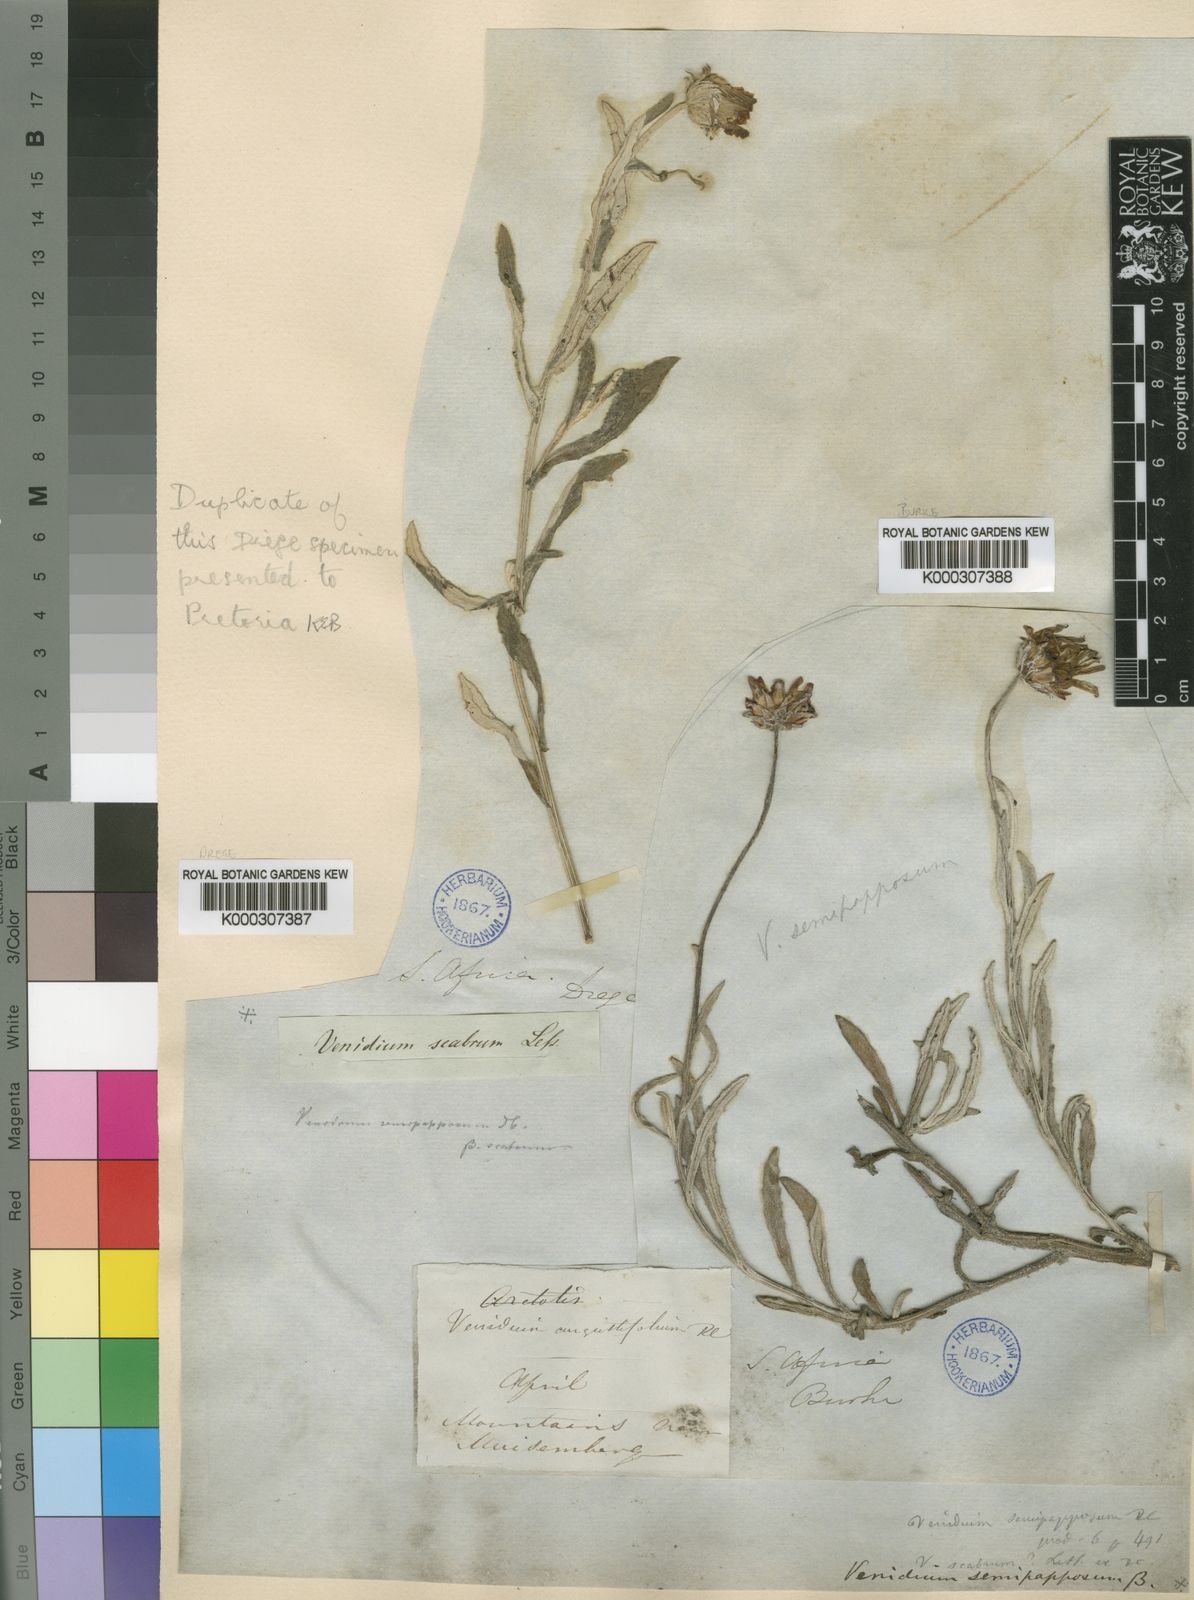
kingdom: Plantae
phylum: Tracheophyta
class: Magnoliopsida
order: Asterales
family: Asteraceae
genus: Arctotis
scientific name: Arctotis scabra
